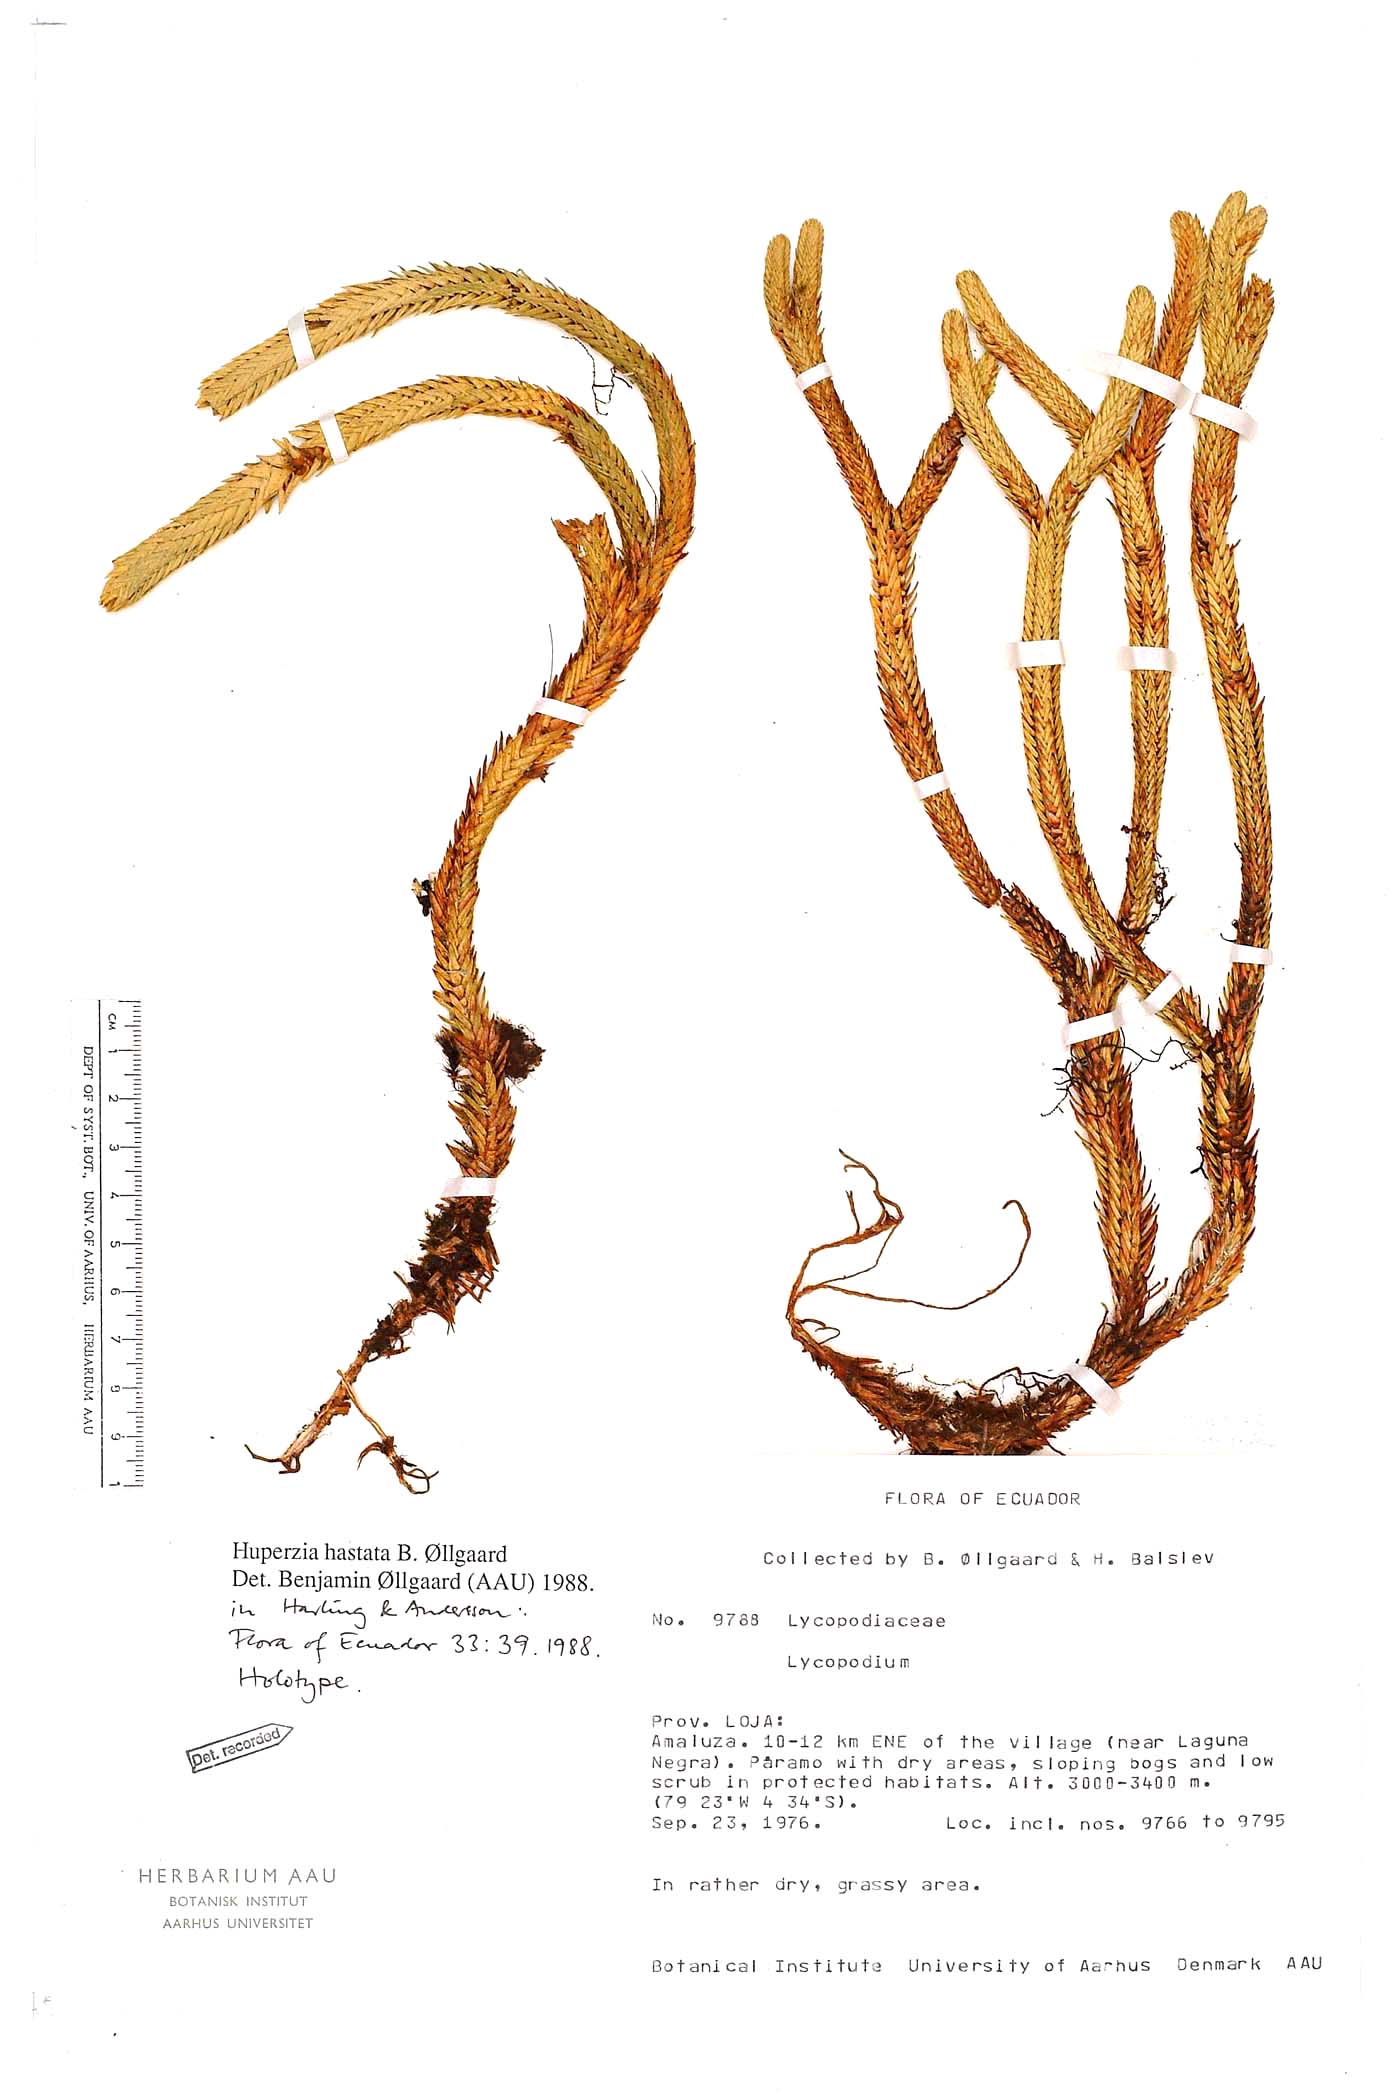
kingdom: Plantae
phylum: Tracheophyta
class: Lycopodiopsida
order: Lycopodiales
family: Lycopodiaceae
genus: Phlegmariurus
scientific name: Phlegmariurus hastatus
